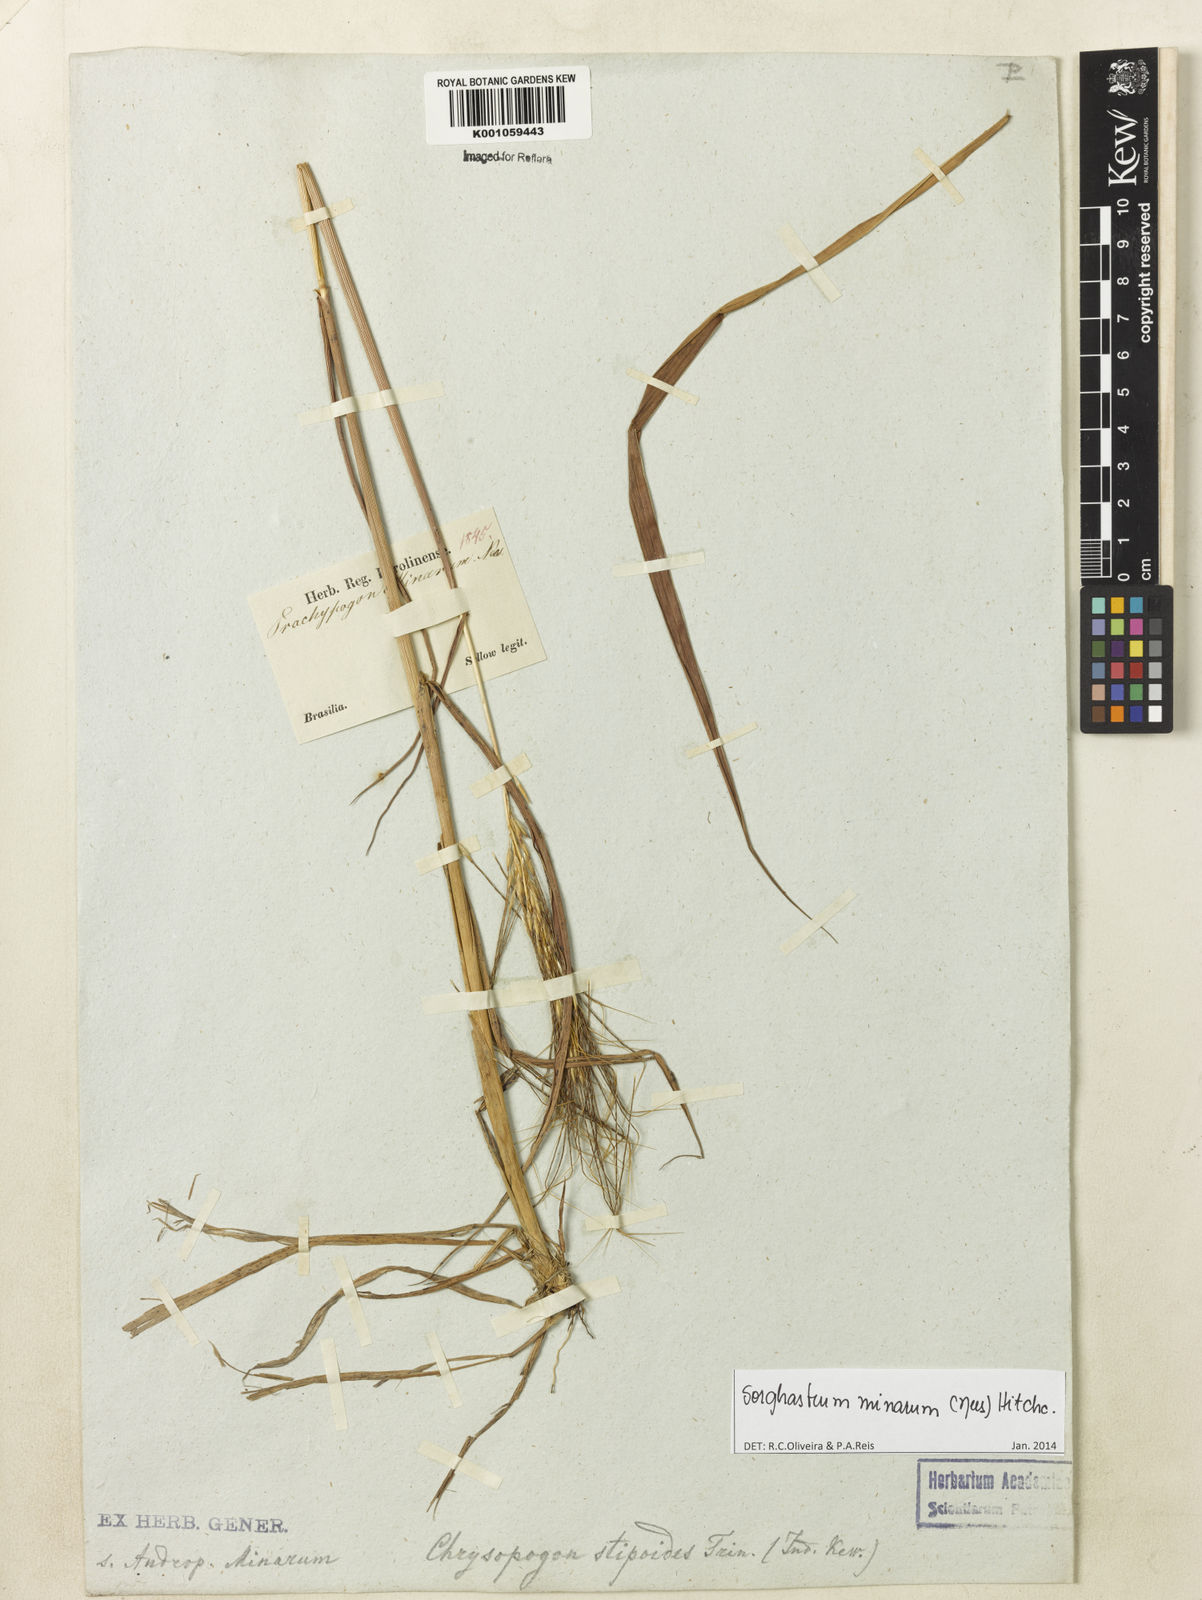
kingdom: Plantae
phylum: Tracheophyta
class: Liliopsida
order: Poales
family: Poaceae
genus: Sorghastrum
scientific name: Sorghastrum minarum
